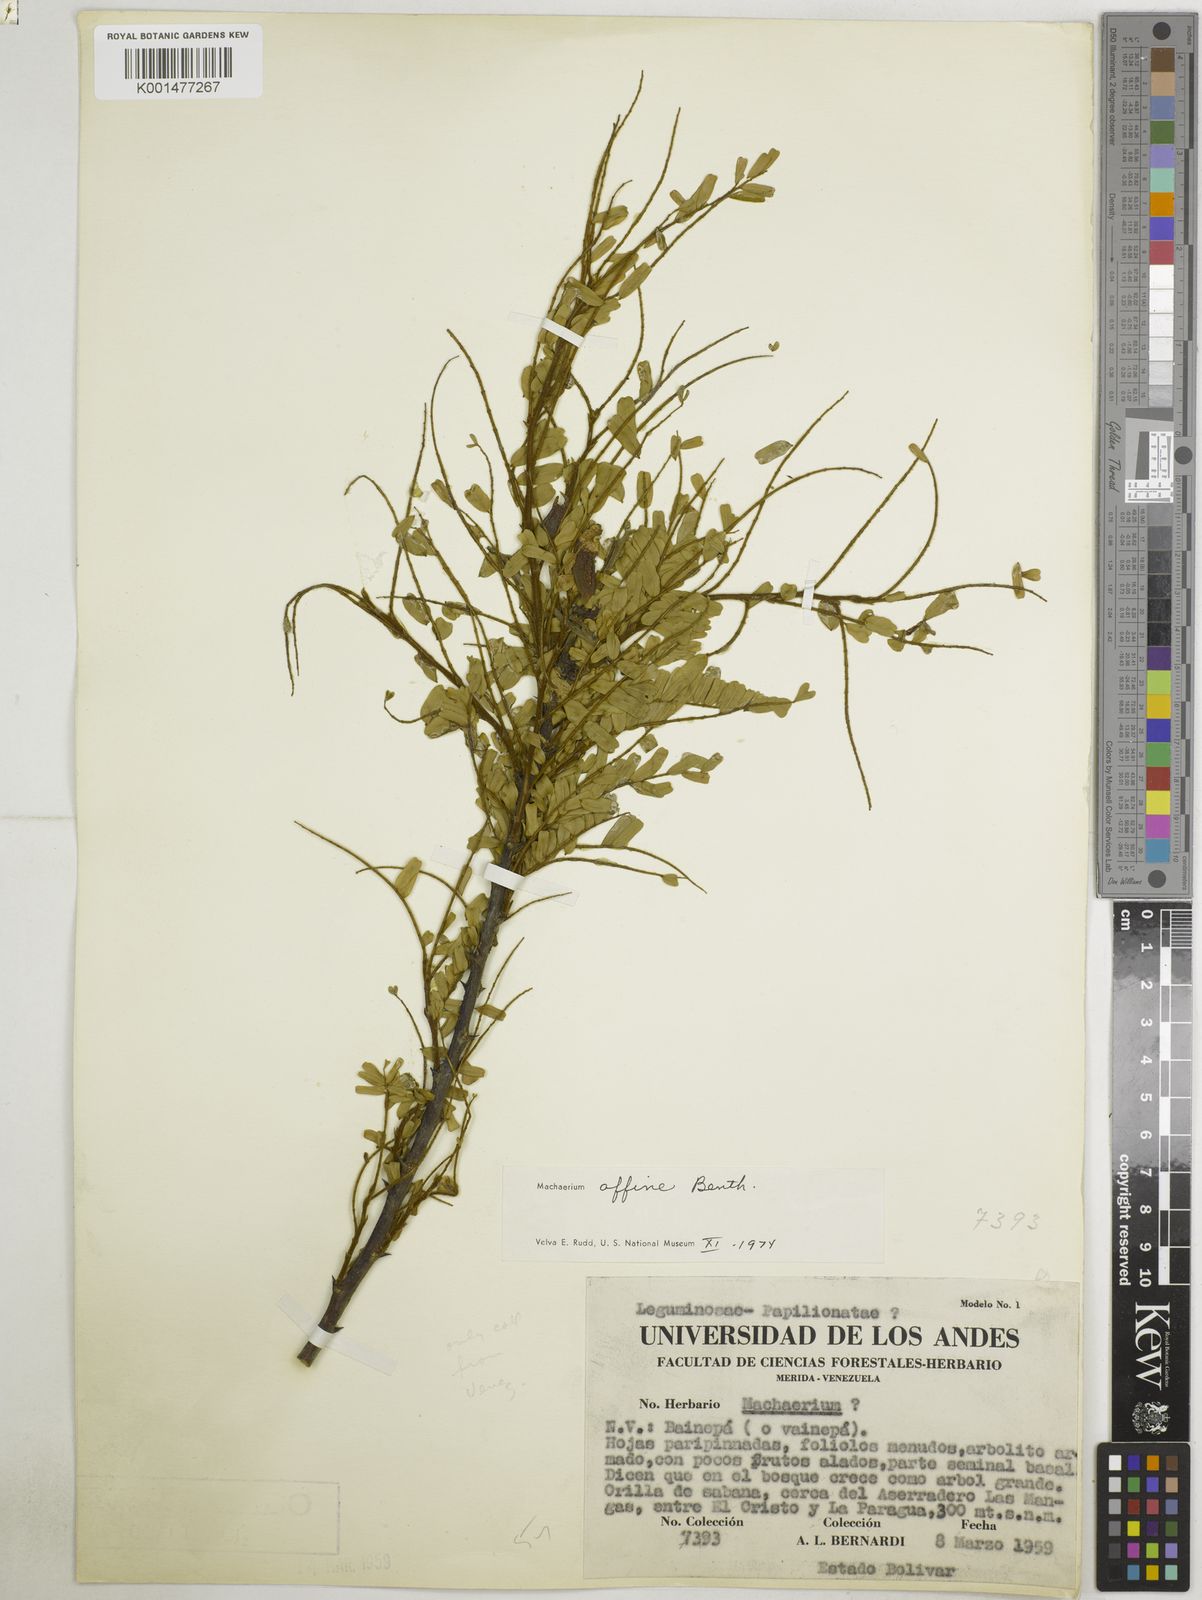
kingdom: Plantae
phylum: Tracheophyta
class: Magnoliopsida
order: Fabales
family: Fabaceae
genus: Machaerium
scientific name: Machaerium hirtum
